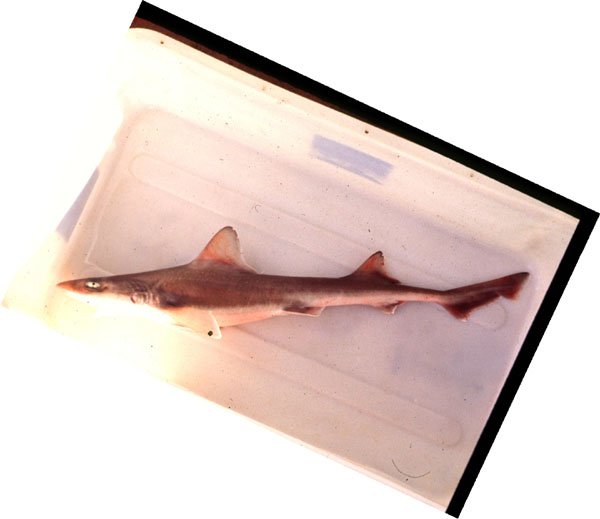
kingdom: Animalia
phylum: Chordata
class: Elasmobranchii
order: Carcharhiniformes
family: Triakidae
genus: Mustelus
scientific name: Mustelus palumbes
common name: Whitespotted smooth-hound
